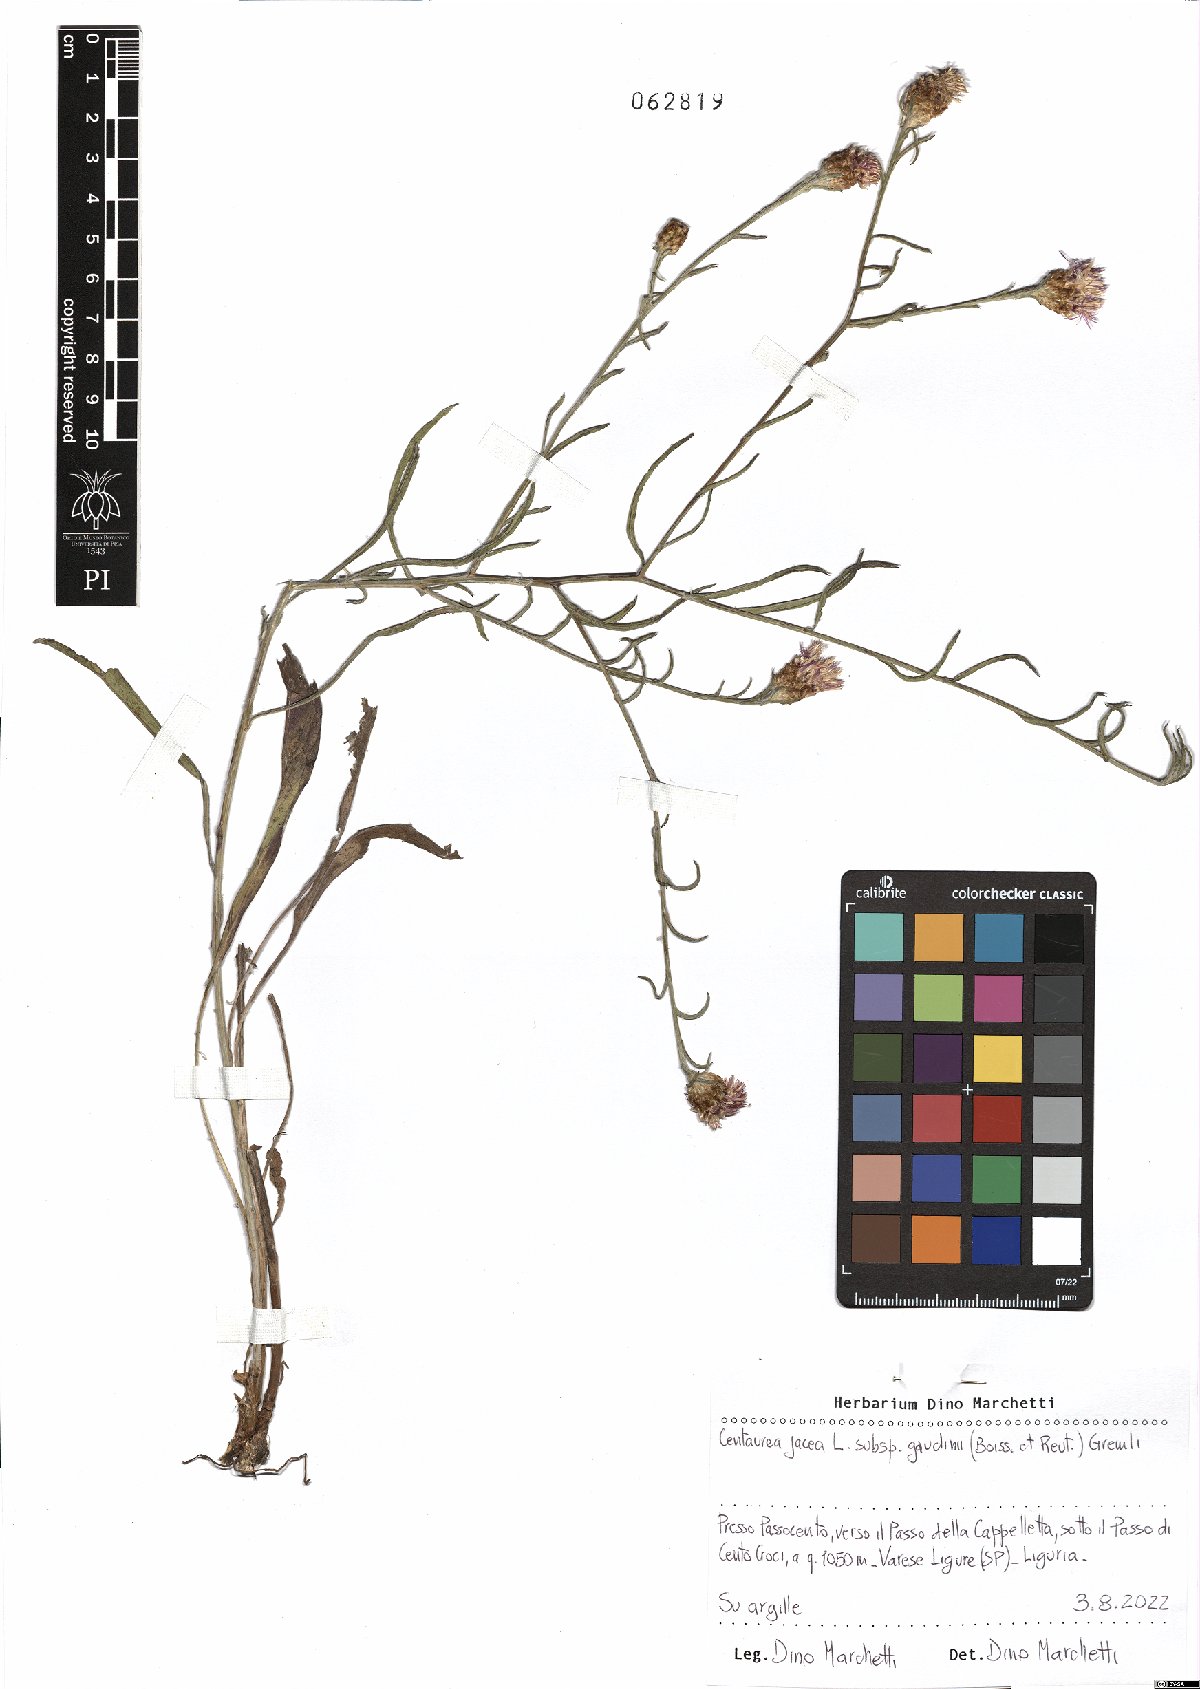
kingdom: Plantae
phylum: Tracheophyta
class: Magnoliopsida
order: Asterales
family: Asteraceae
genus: Centaurea
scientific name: Centaurea jacea
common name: Brown knapweed
